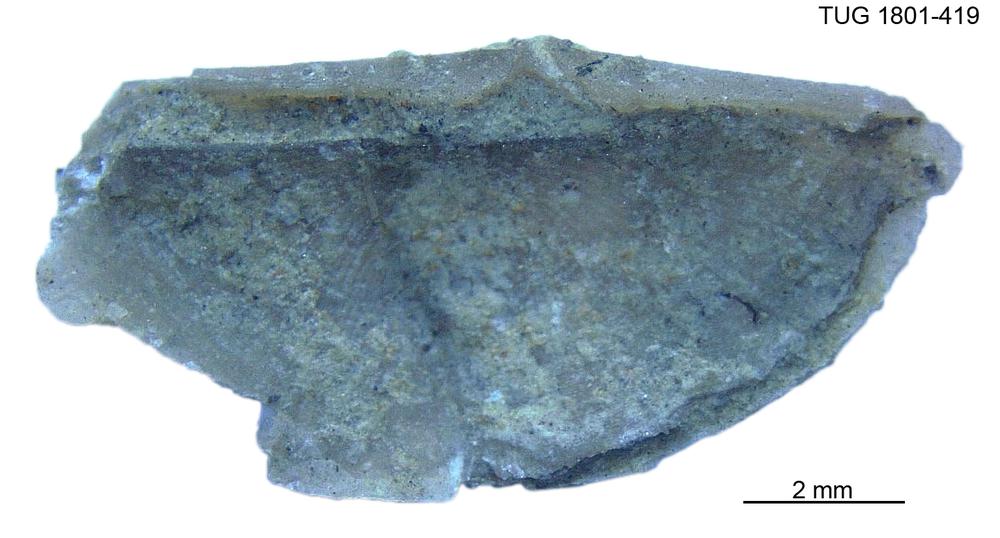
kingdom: Animalia
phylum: Brachiopoda
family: Oldhaminidae
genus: Eoplectodonta
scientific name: Eoplectodonta
